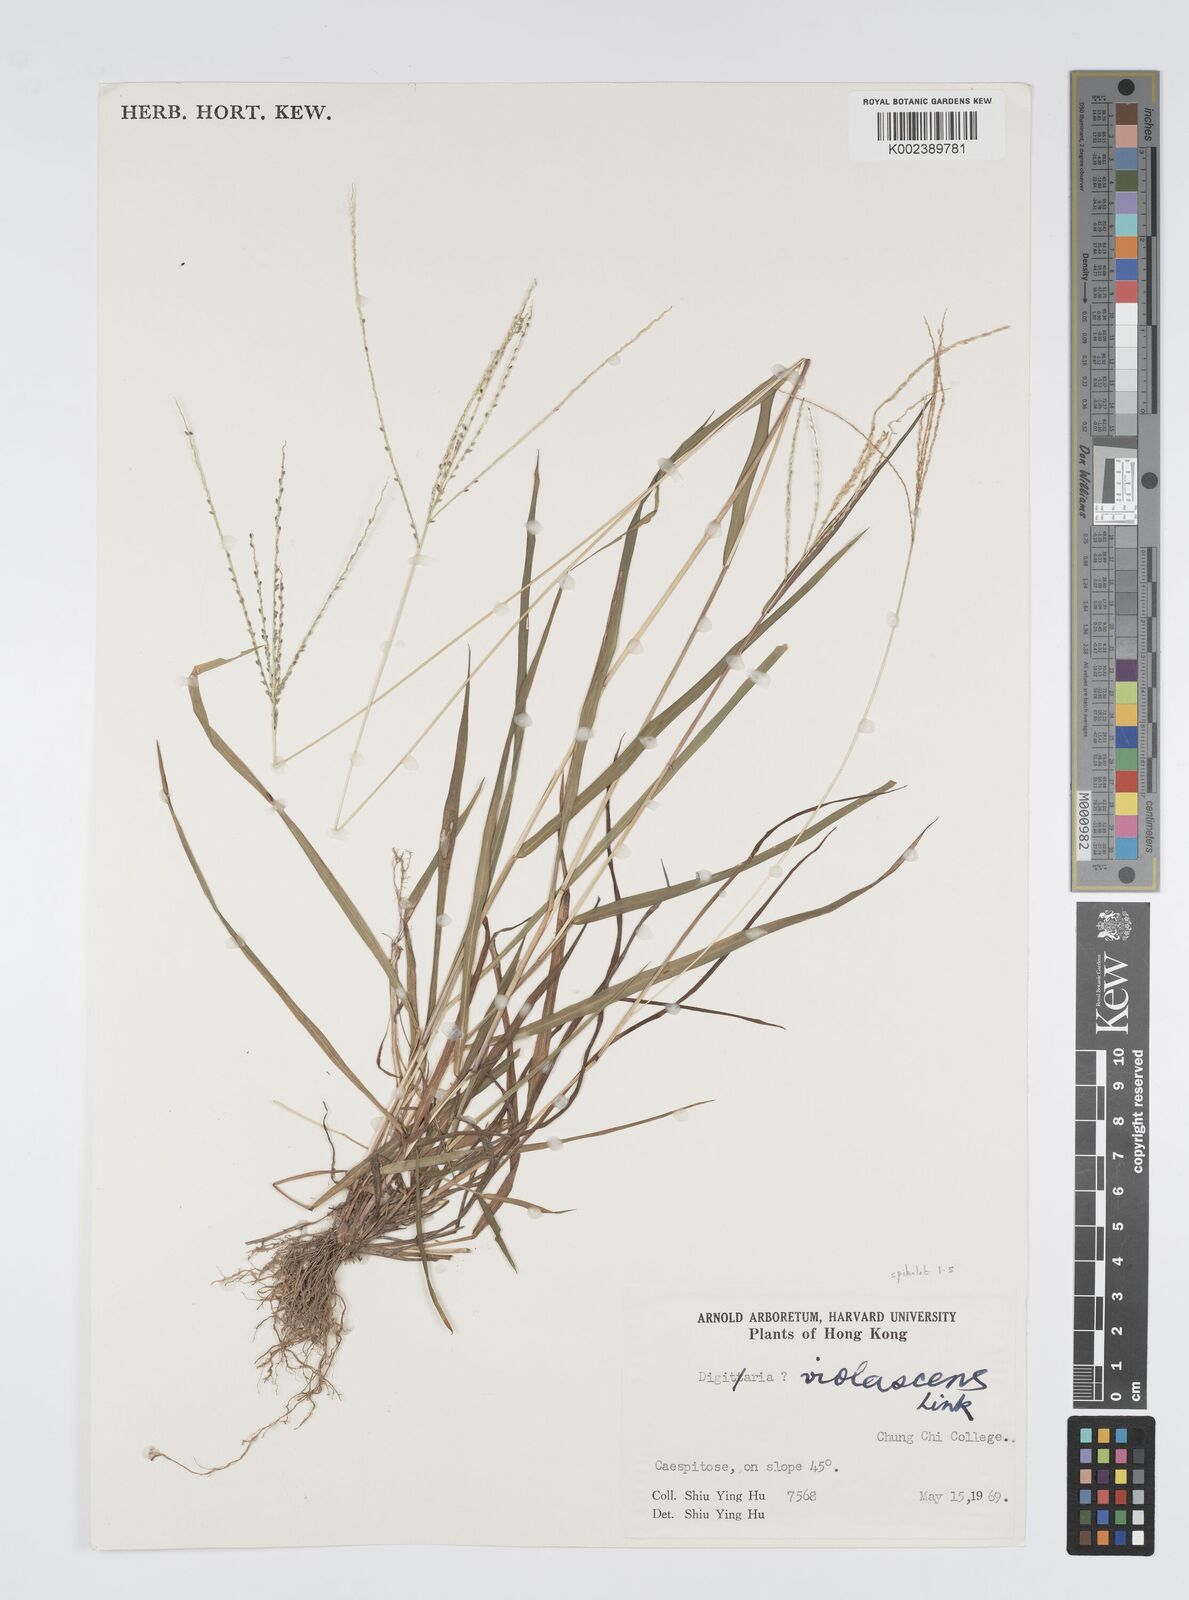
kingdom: Plantae
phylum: Tracheophyta
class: Liliopsida
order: Poales
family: Poaceae
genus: Digitaria
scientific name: Digitaria violascens
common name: Violet crabgrass
